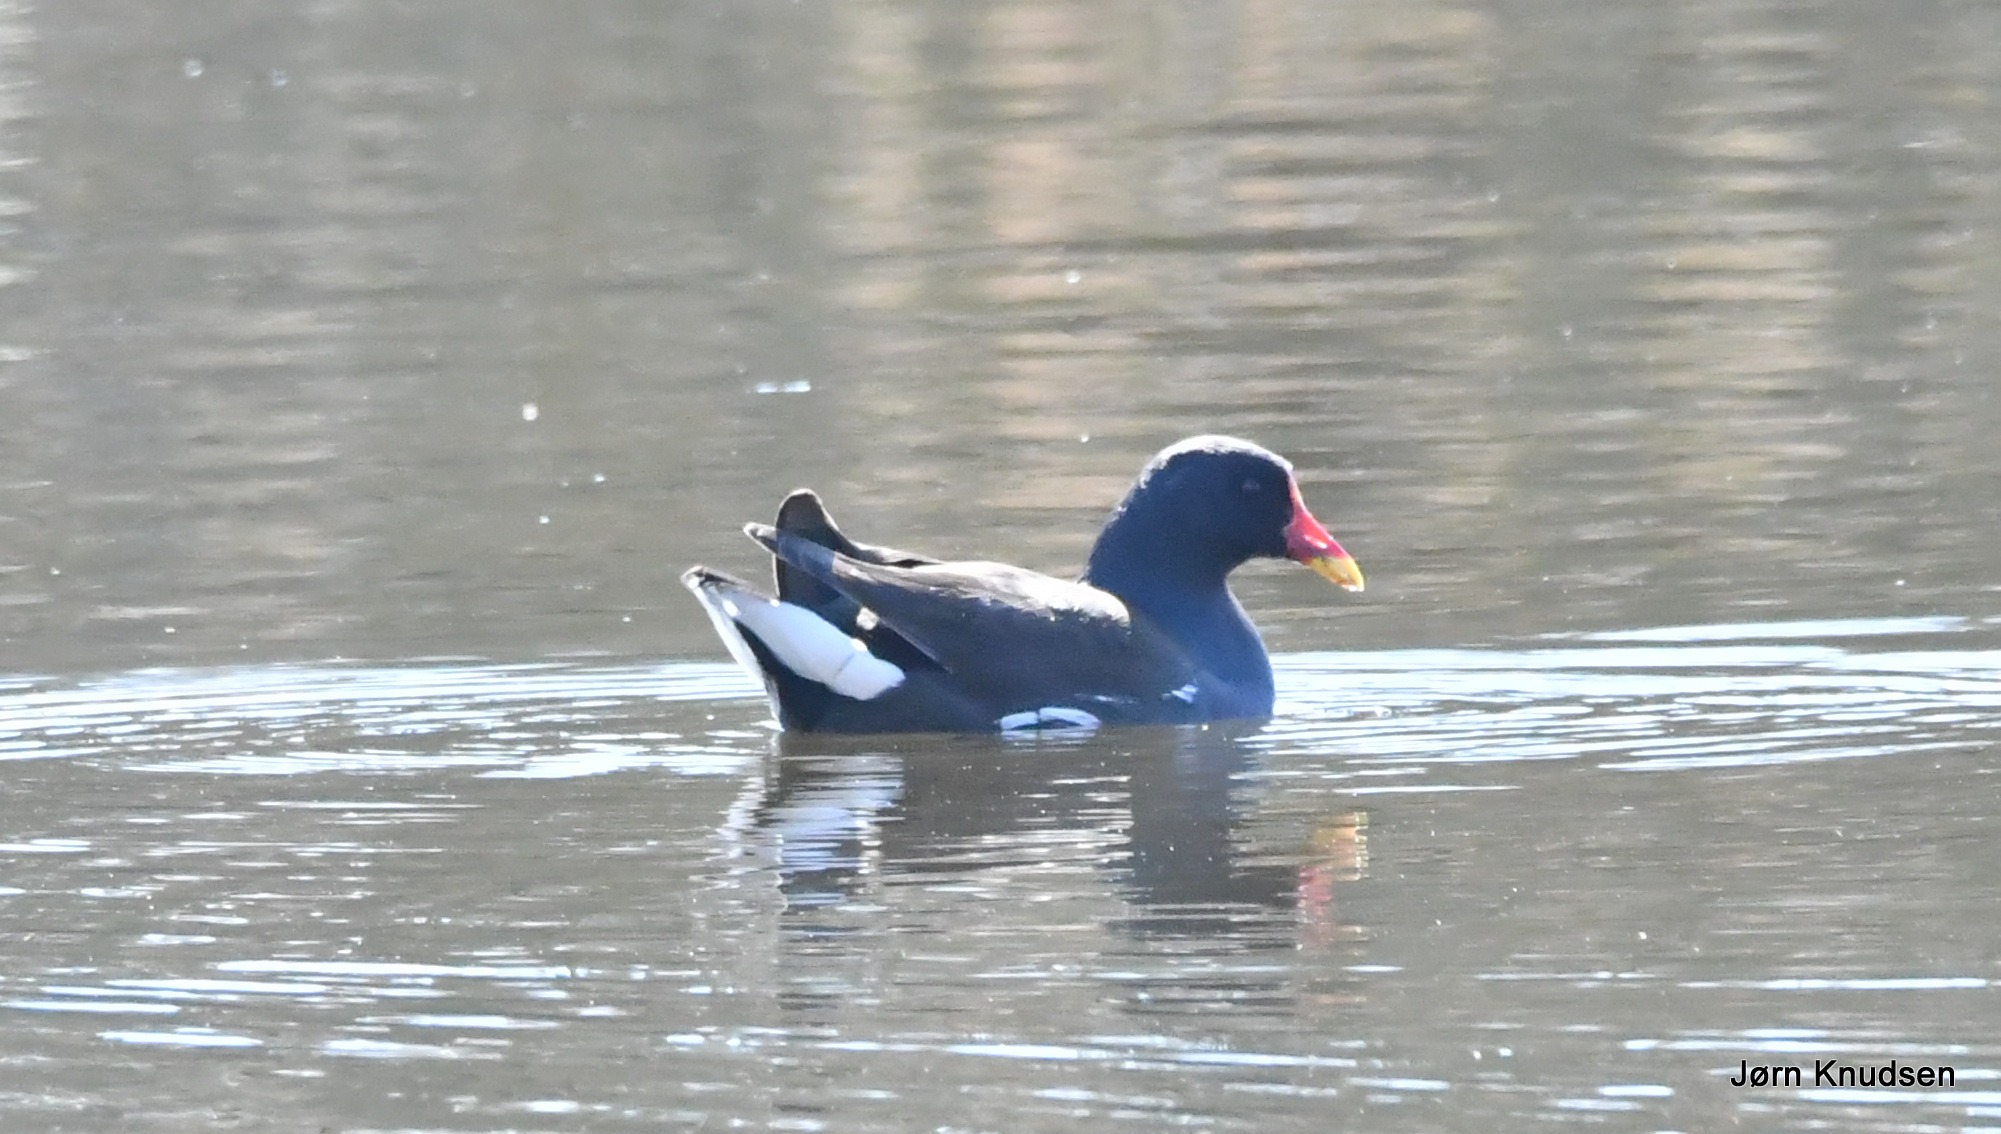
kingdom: Animalia
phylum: Chordata
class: Aves
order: Gruiformes
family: Rallidae
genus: Gallinula
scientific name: Gallinula chloropus
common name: Grønbenet rørhøne
